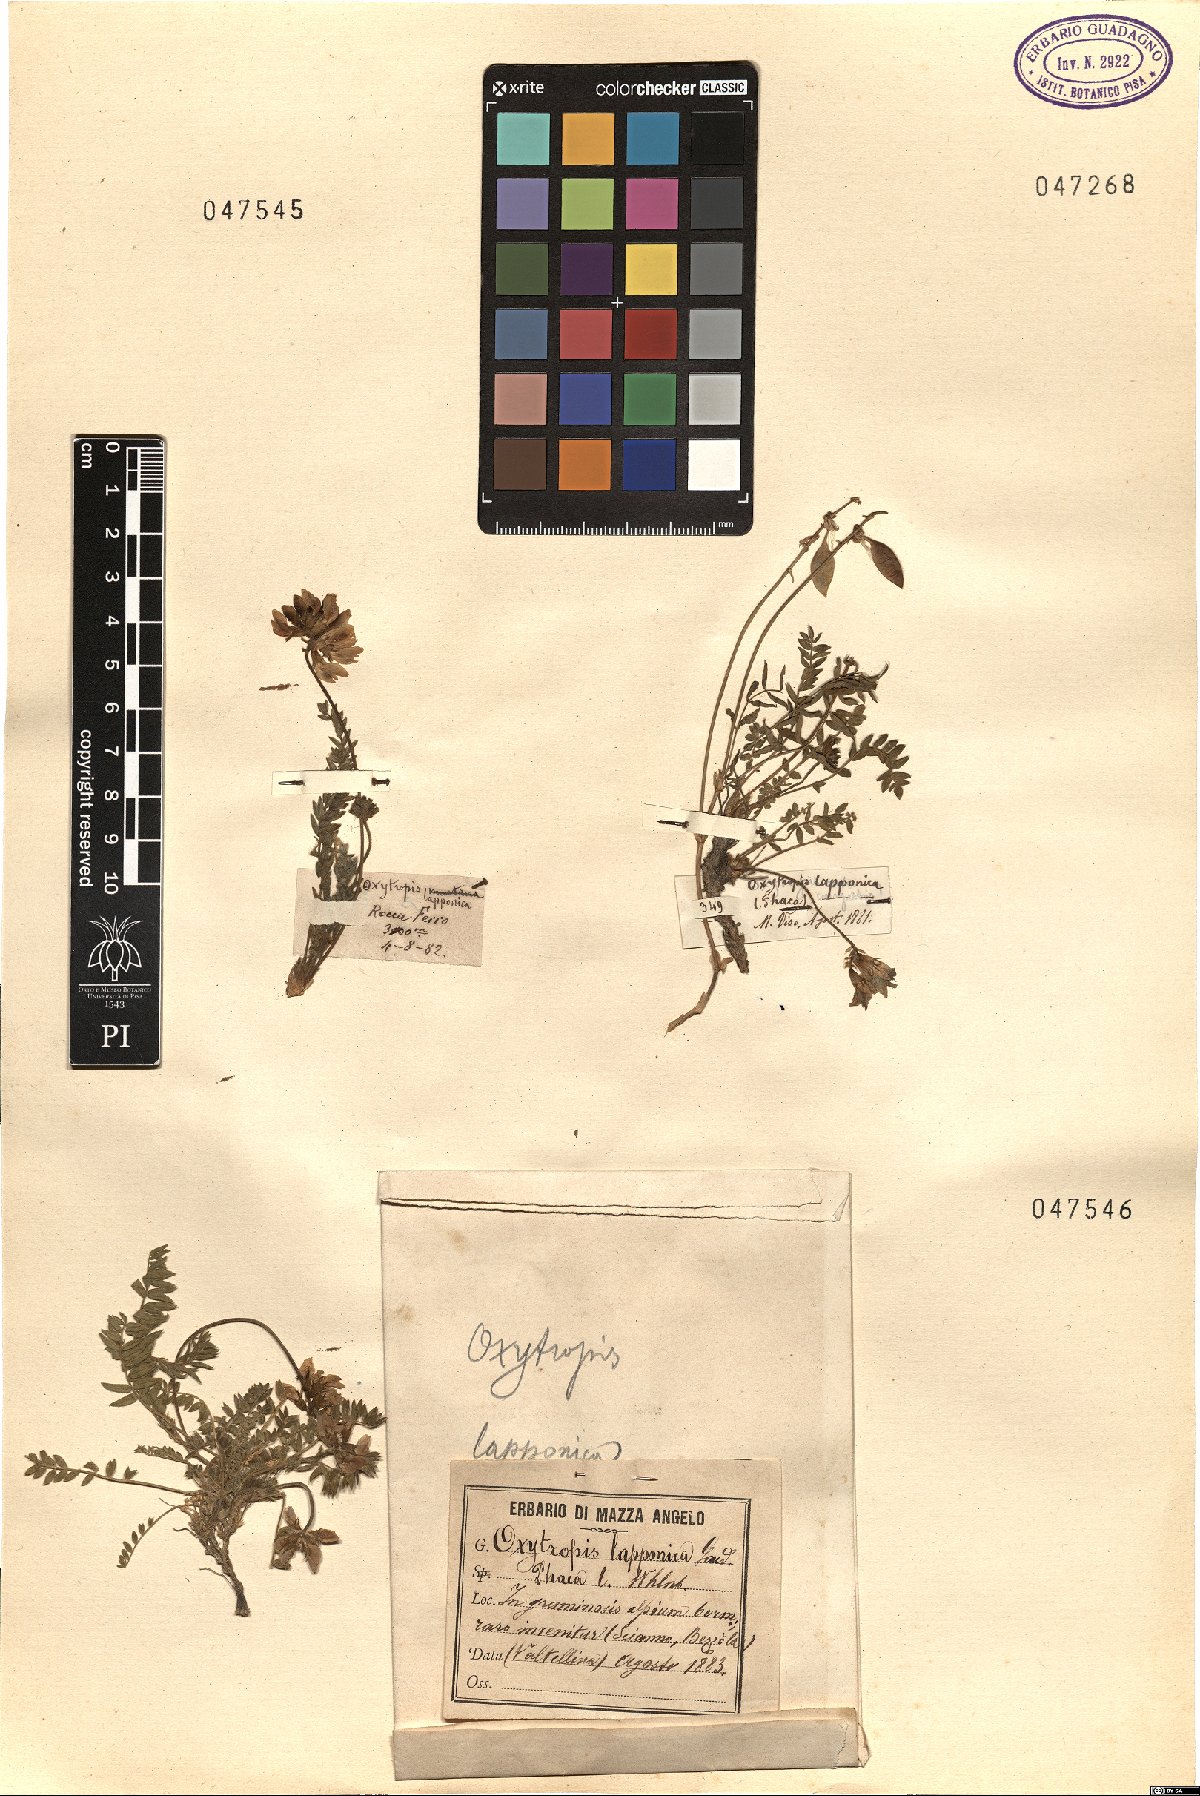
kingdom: Plantae
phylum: Tracheophyta
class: Magnoliopsida
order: Fabales
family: Fabaceae
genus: Oxytropis
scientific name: Oxytropis lapponica
